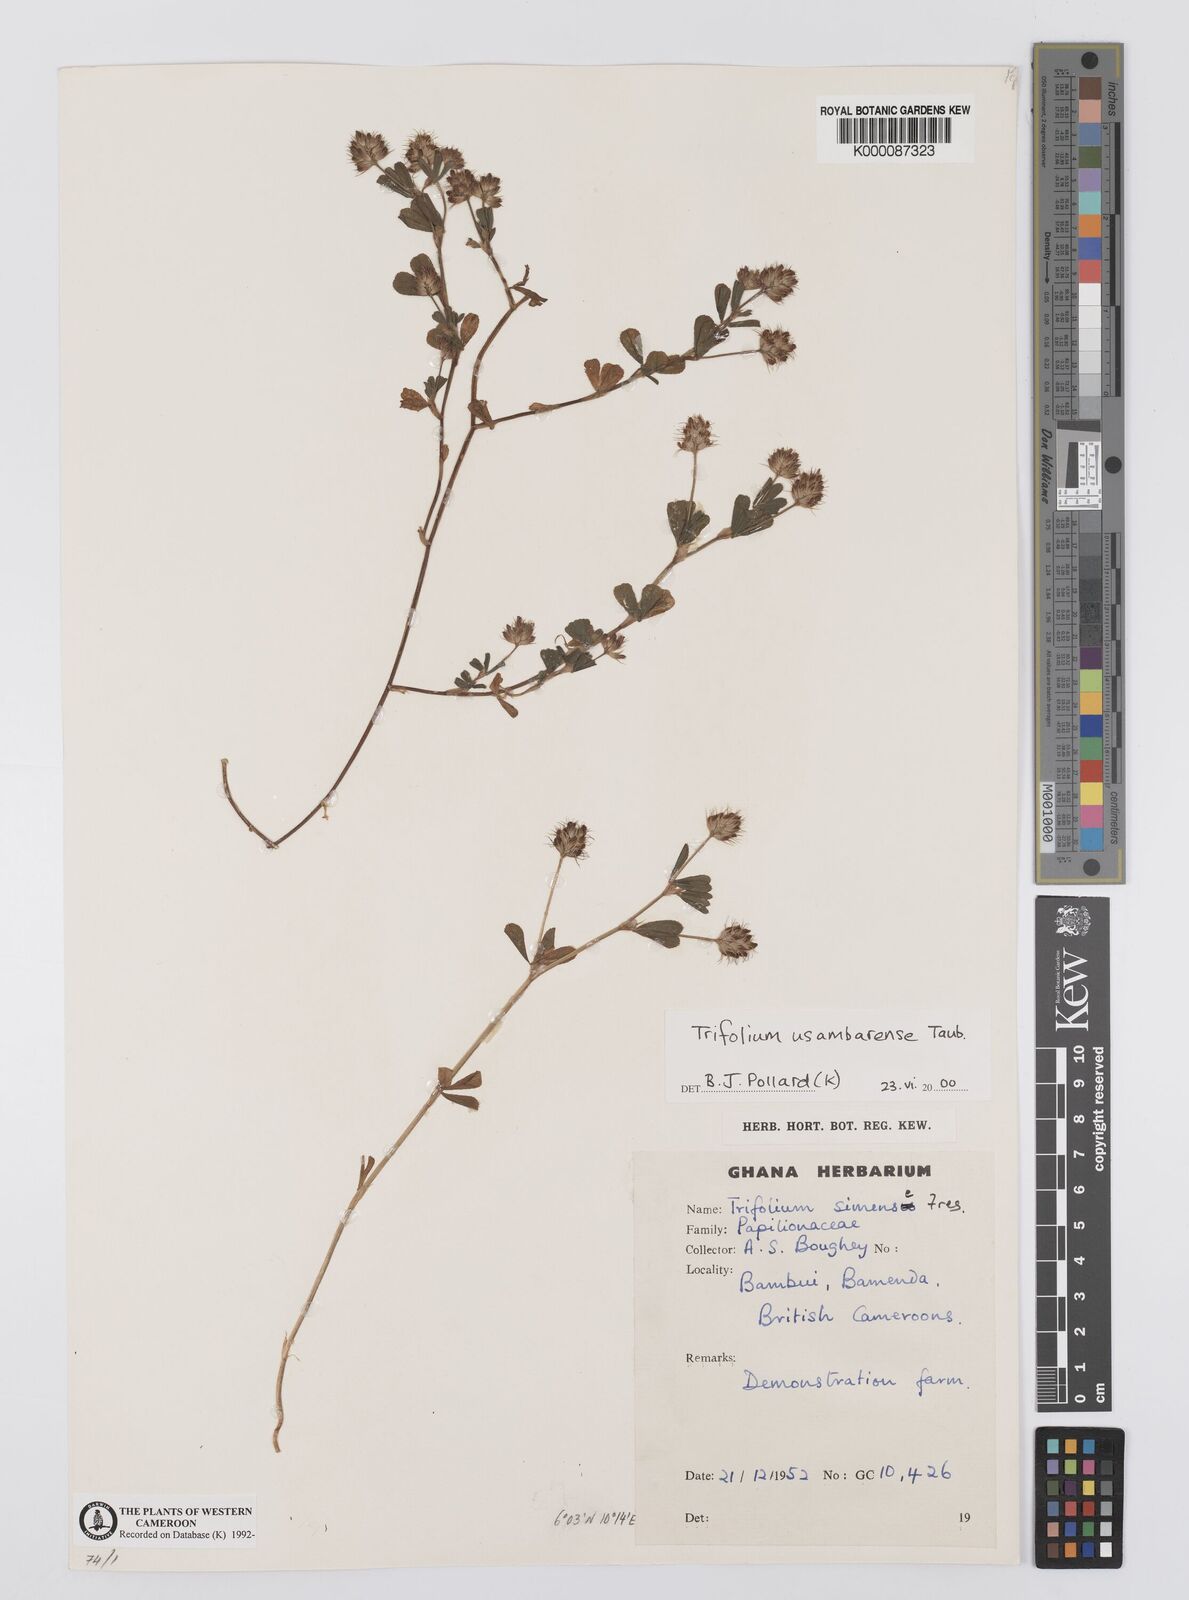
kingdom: Plantae
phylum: Tracheophyta
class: Magnoliopsida
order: Fabales
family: Fabaceae
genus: Trifolium
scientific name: Trifolium usambarense
